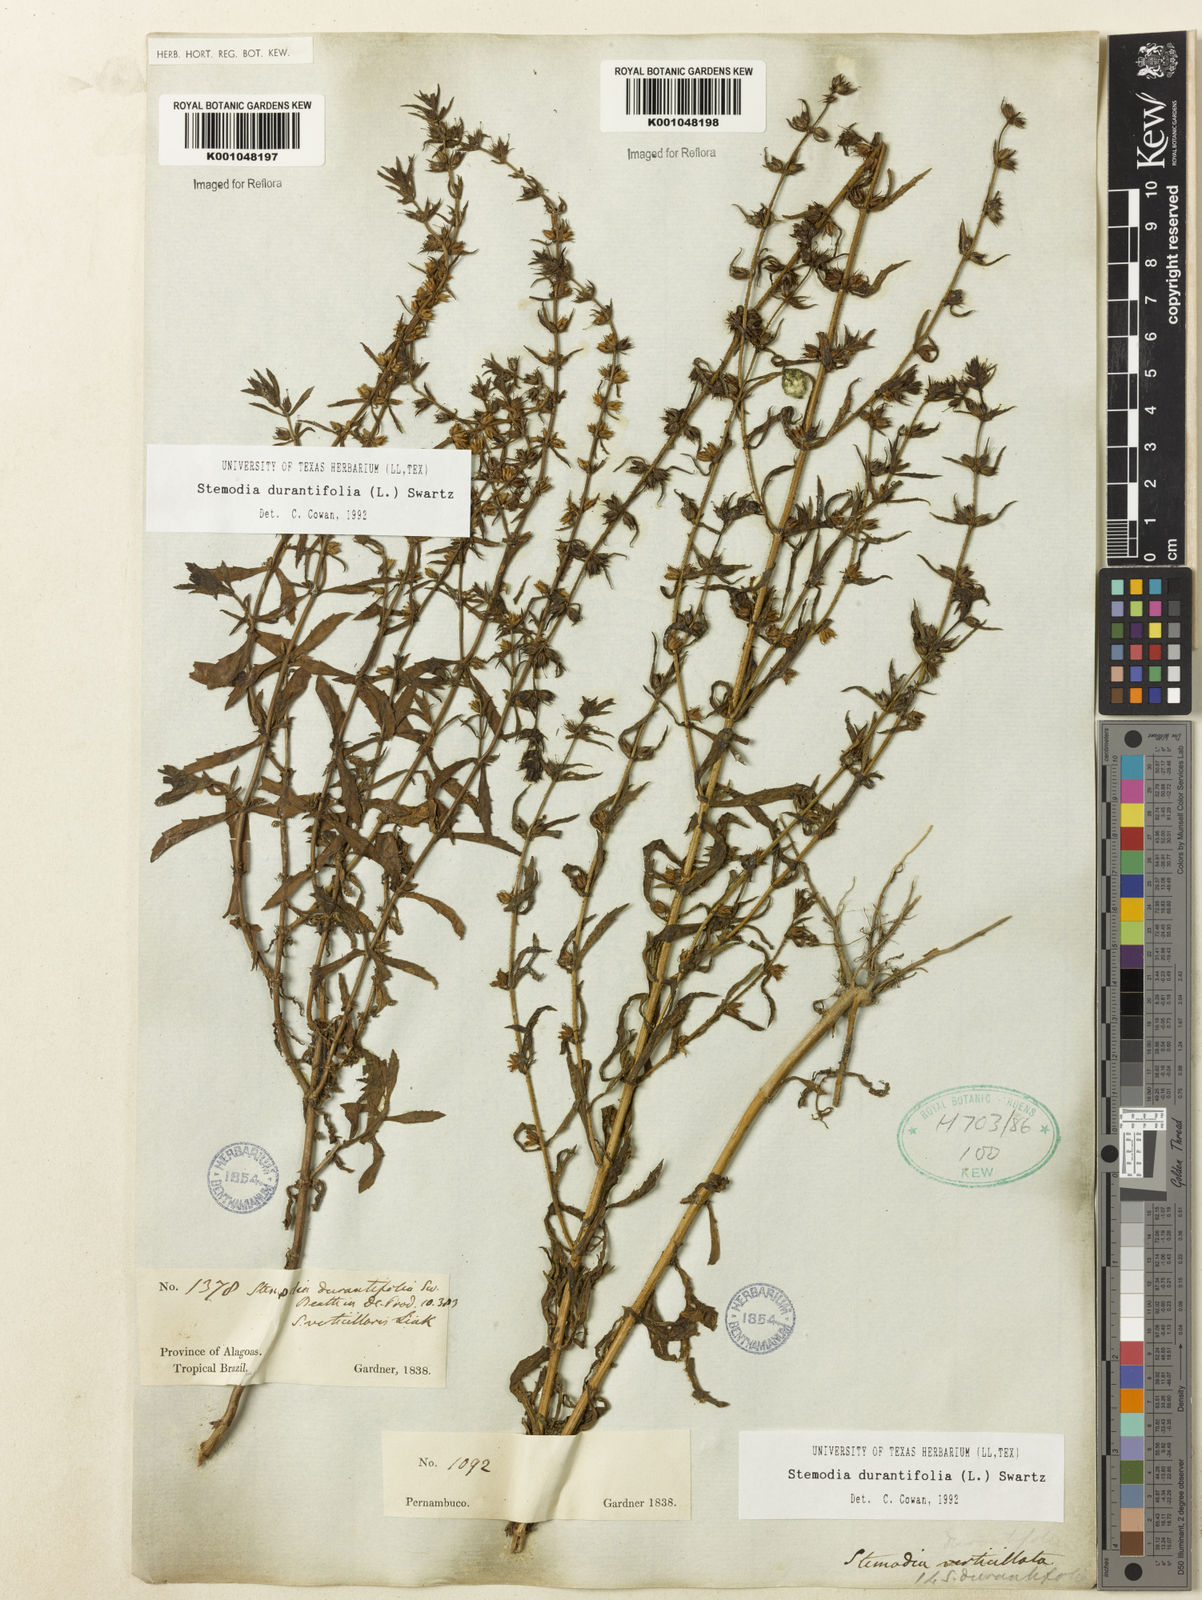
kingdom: Plantae
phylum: Tracheophyta
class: Magnoliopsida
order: Lamiales
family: Plantaginaceae
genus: Stemodia
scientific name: Stemodia durantifolia
